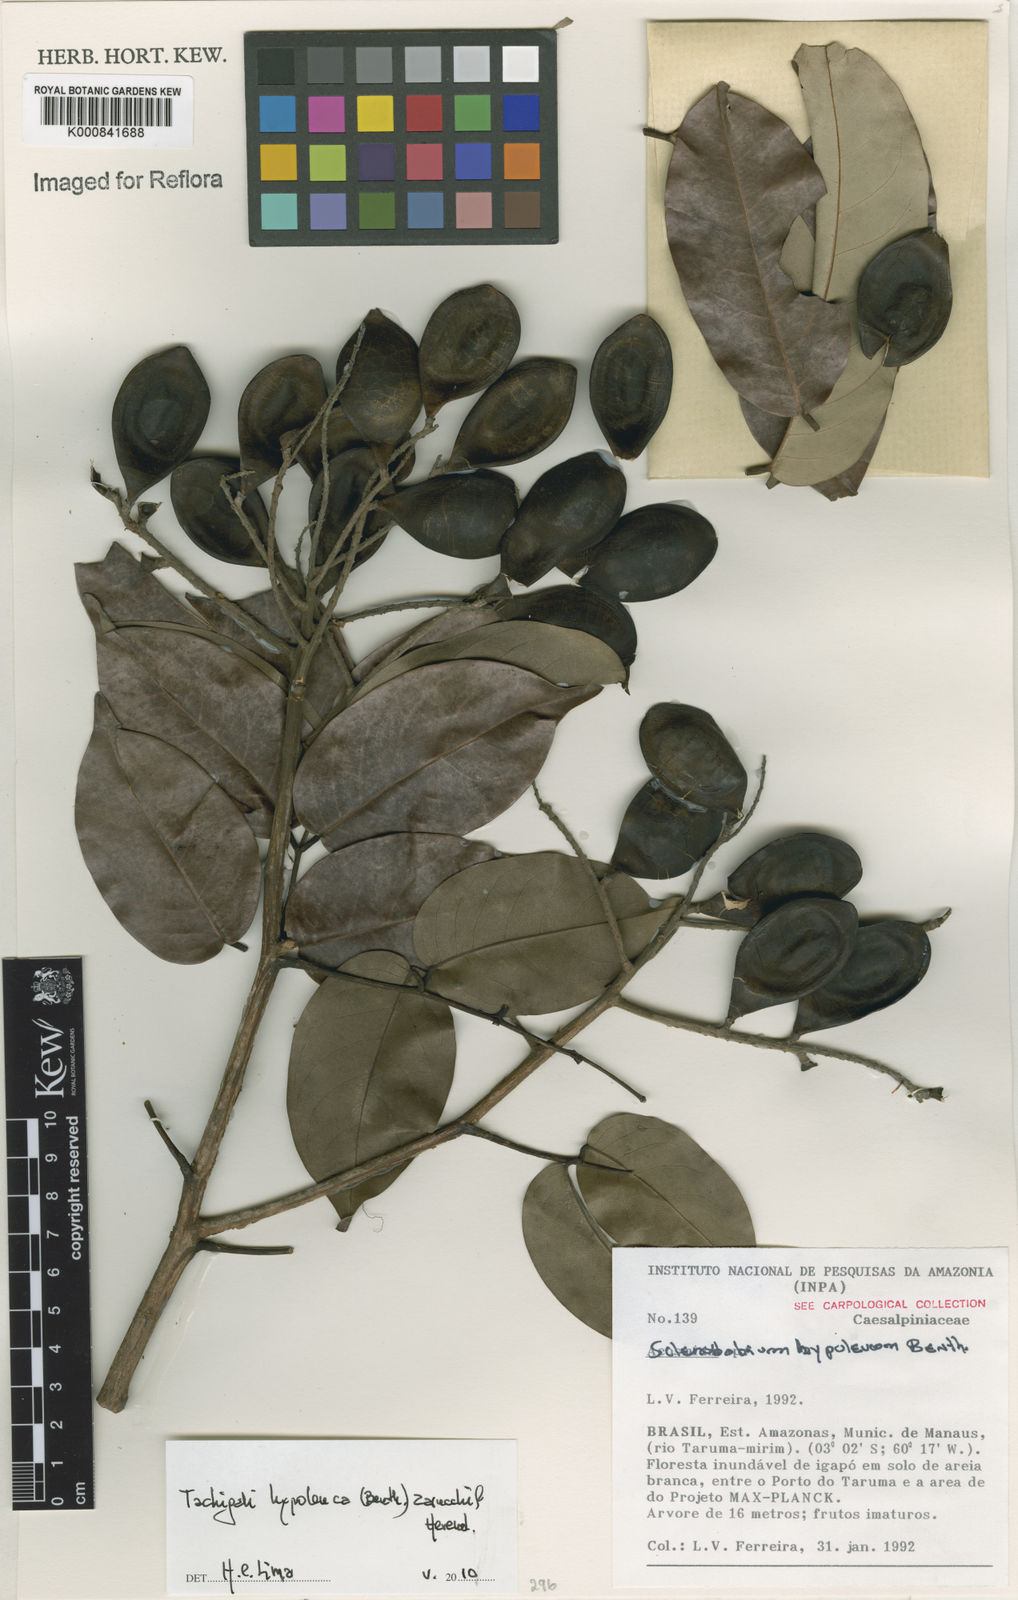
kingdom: Plantae
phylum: Tracheophyta
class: Magnoliopsida
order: Fabales
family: Fabaceae
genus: Tachigali
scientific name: Tachigali hypoleuca
